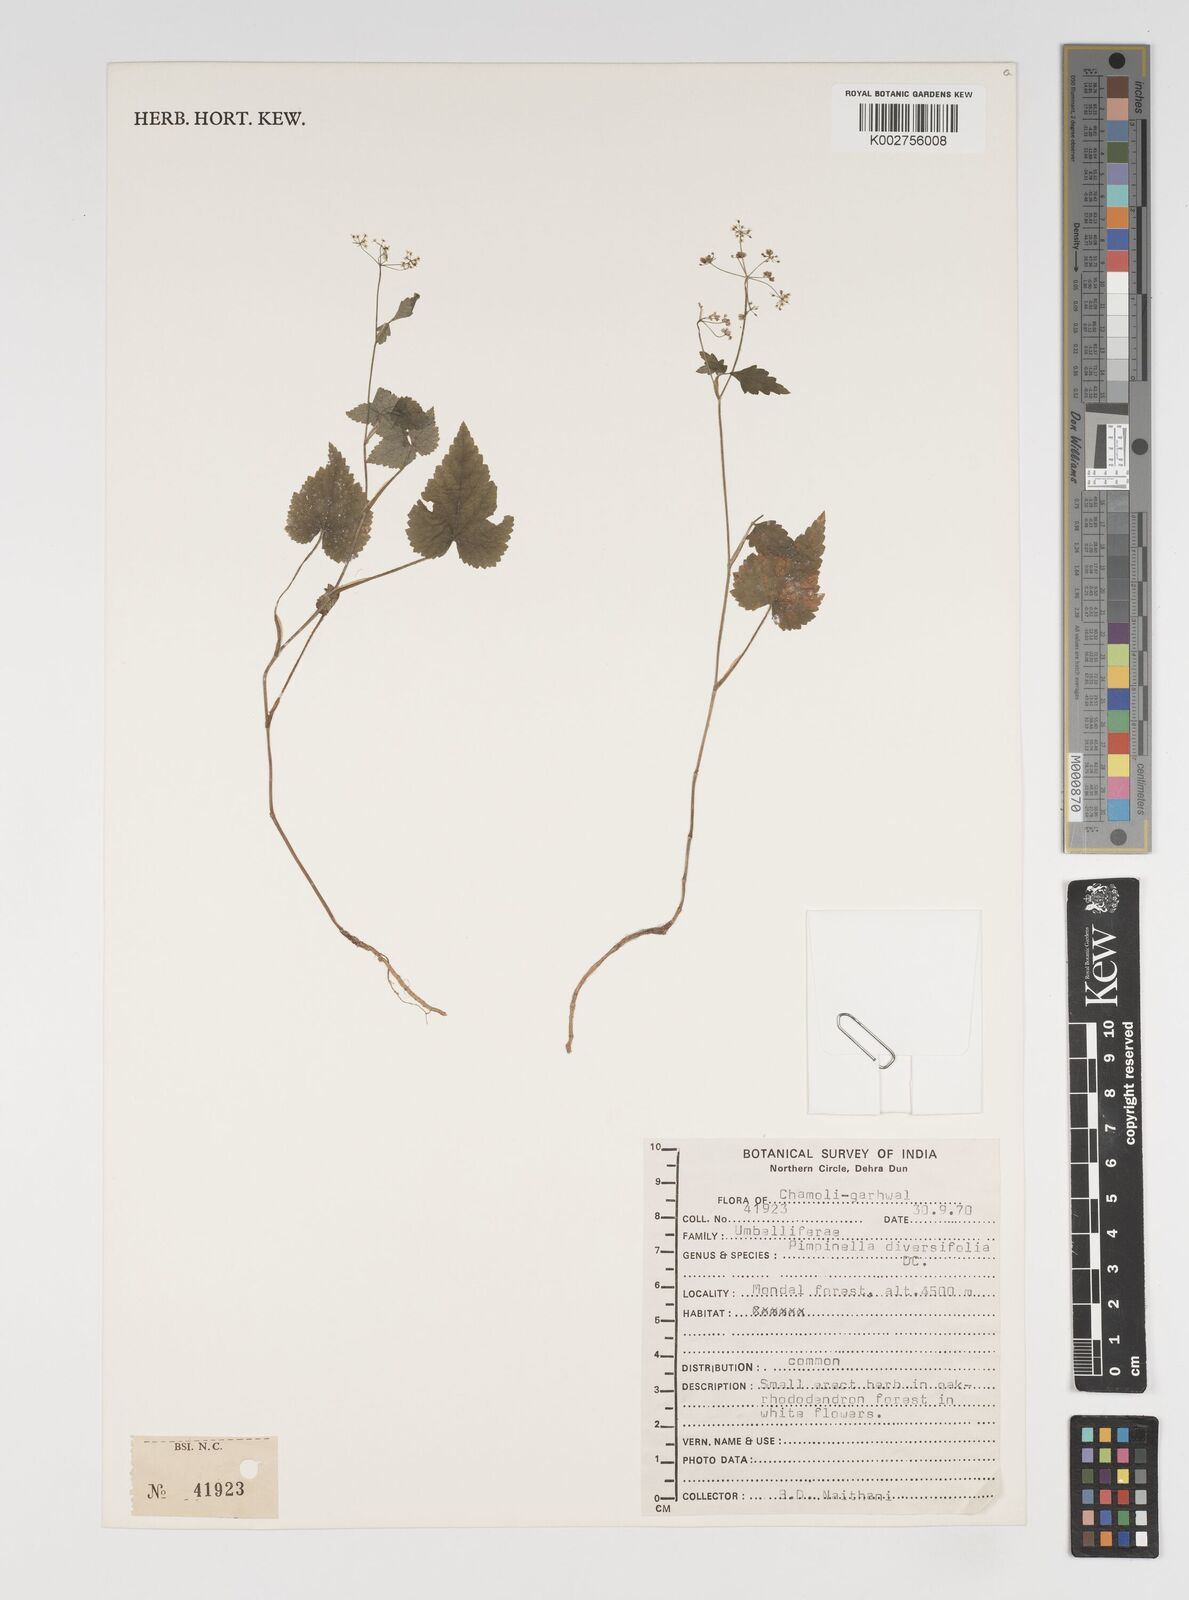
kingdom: Plantae
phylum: Tracheophyta
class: Magnoliopsida
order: Apiales
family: Apiaceae
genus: Pimpinella
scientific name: Pimpinella diversifolia
